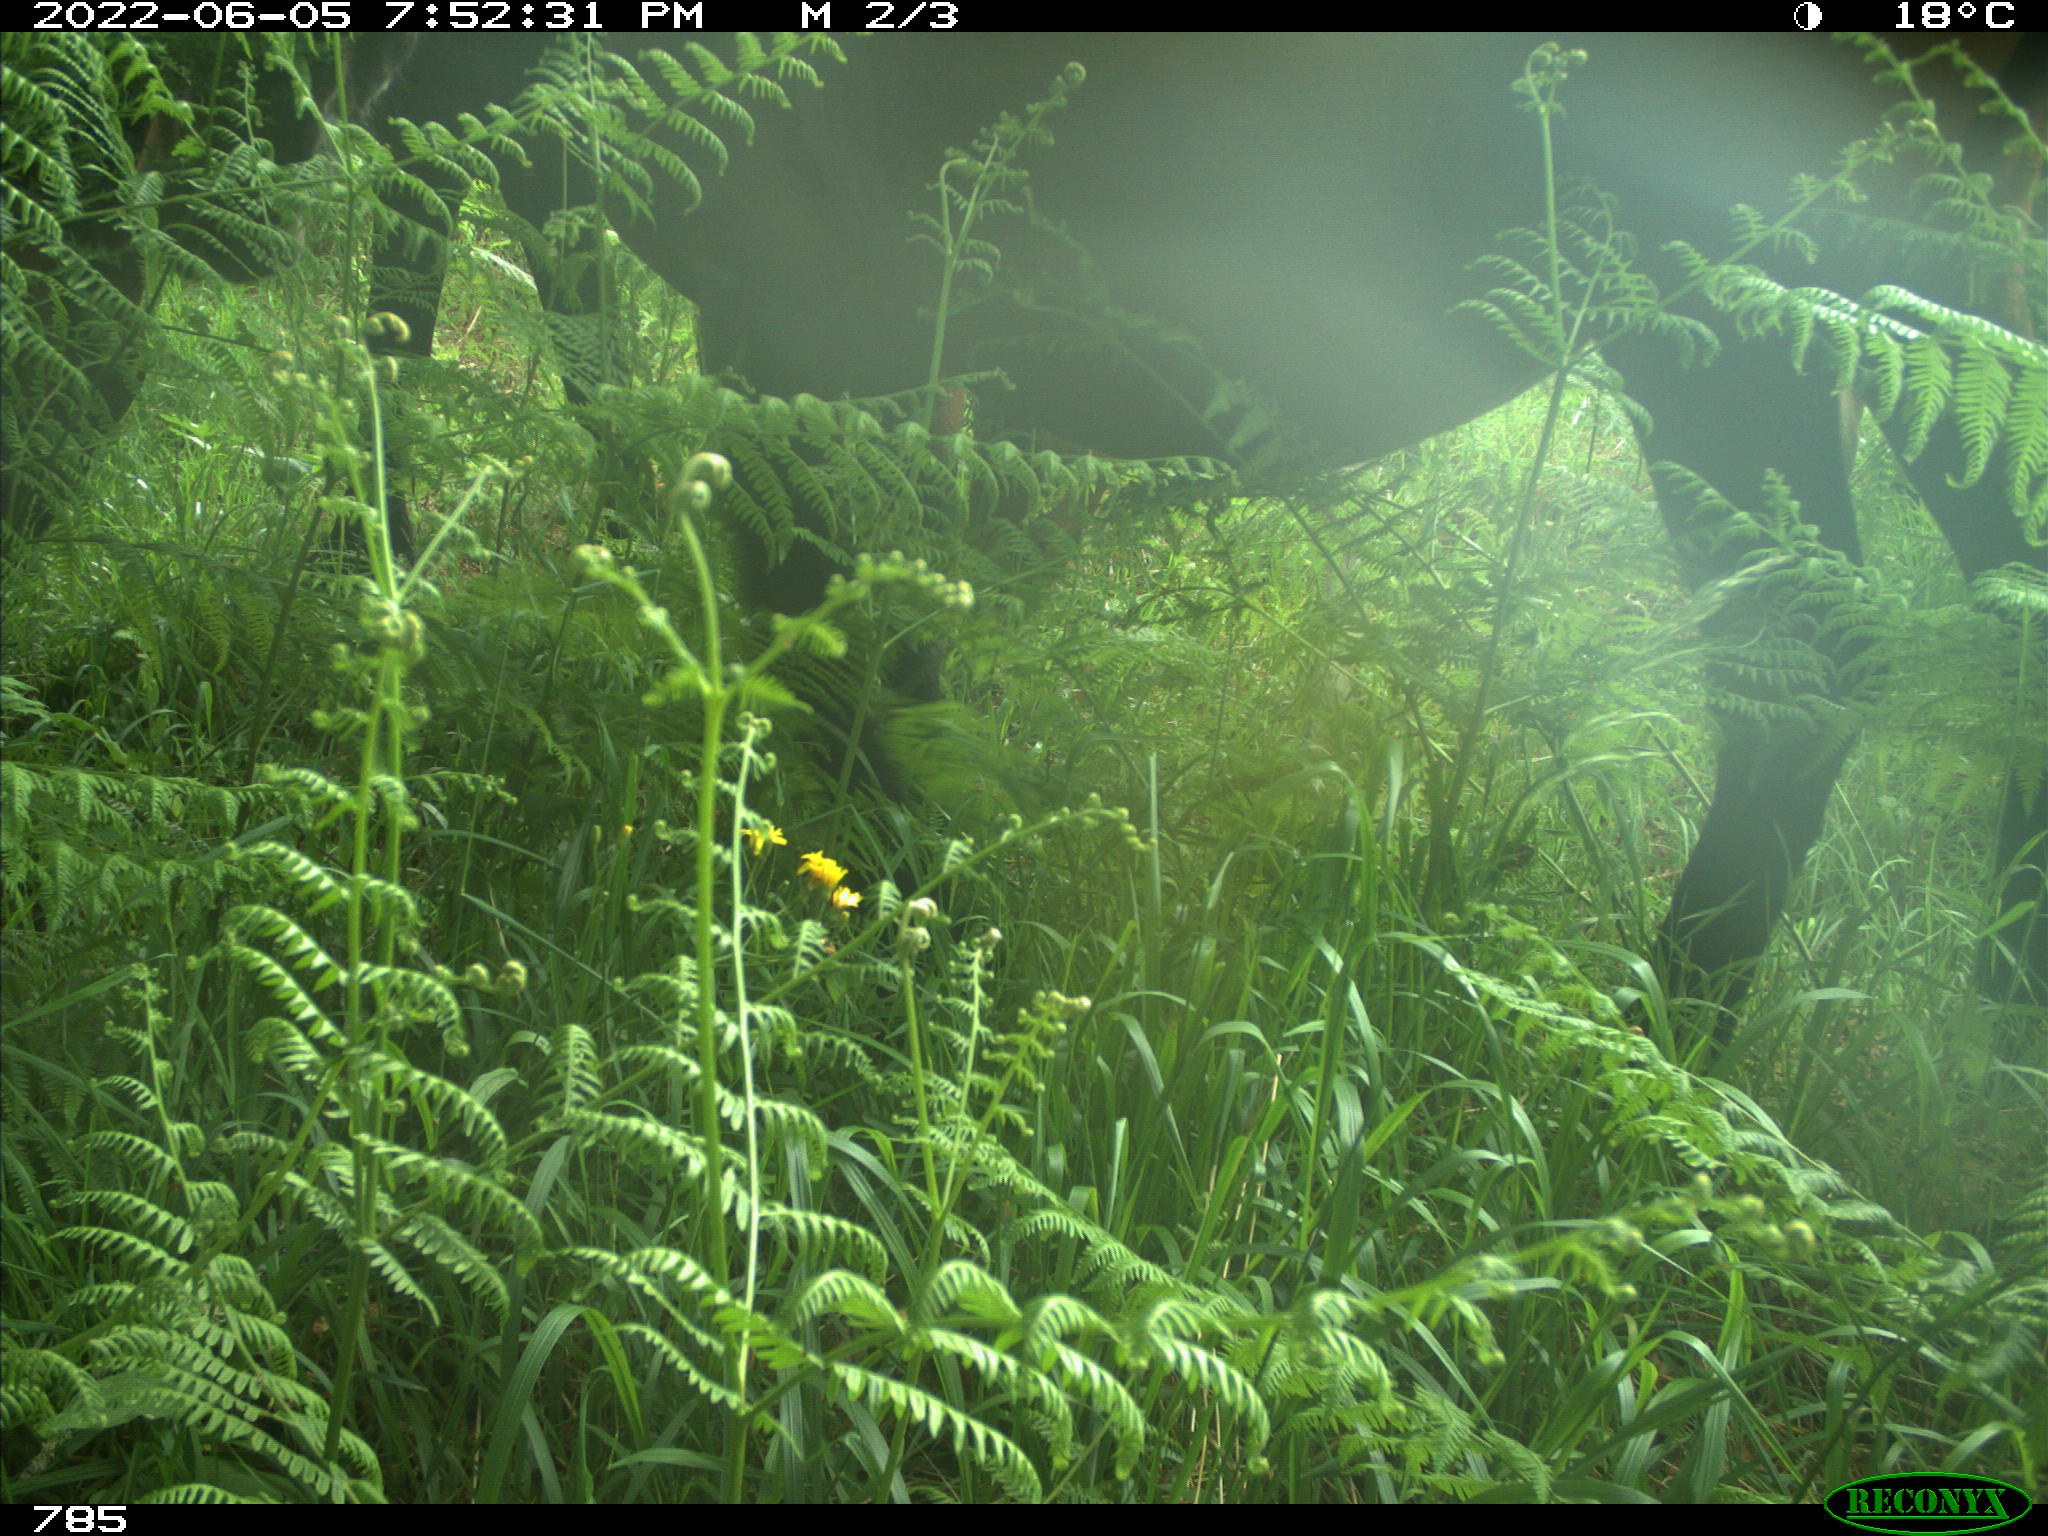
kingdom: Animalia
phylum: Chordata
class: Mammalia
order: Perissodactyla
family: Equidae
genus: Equus
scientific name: Equus caballus
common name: Horse
